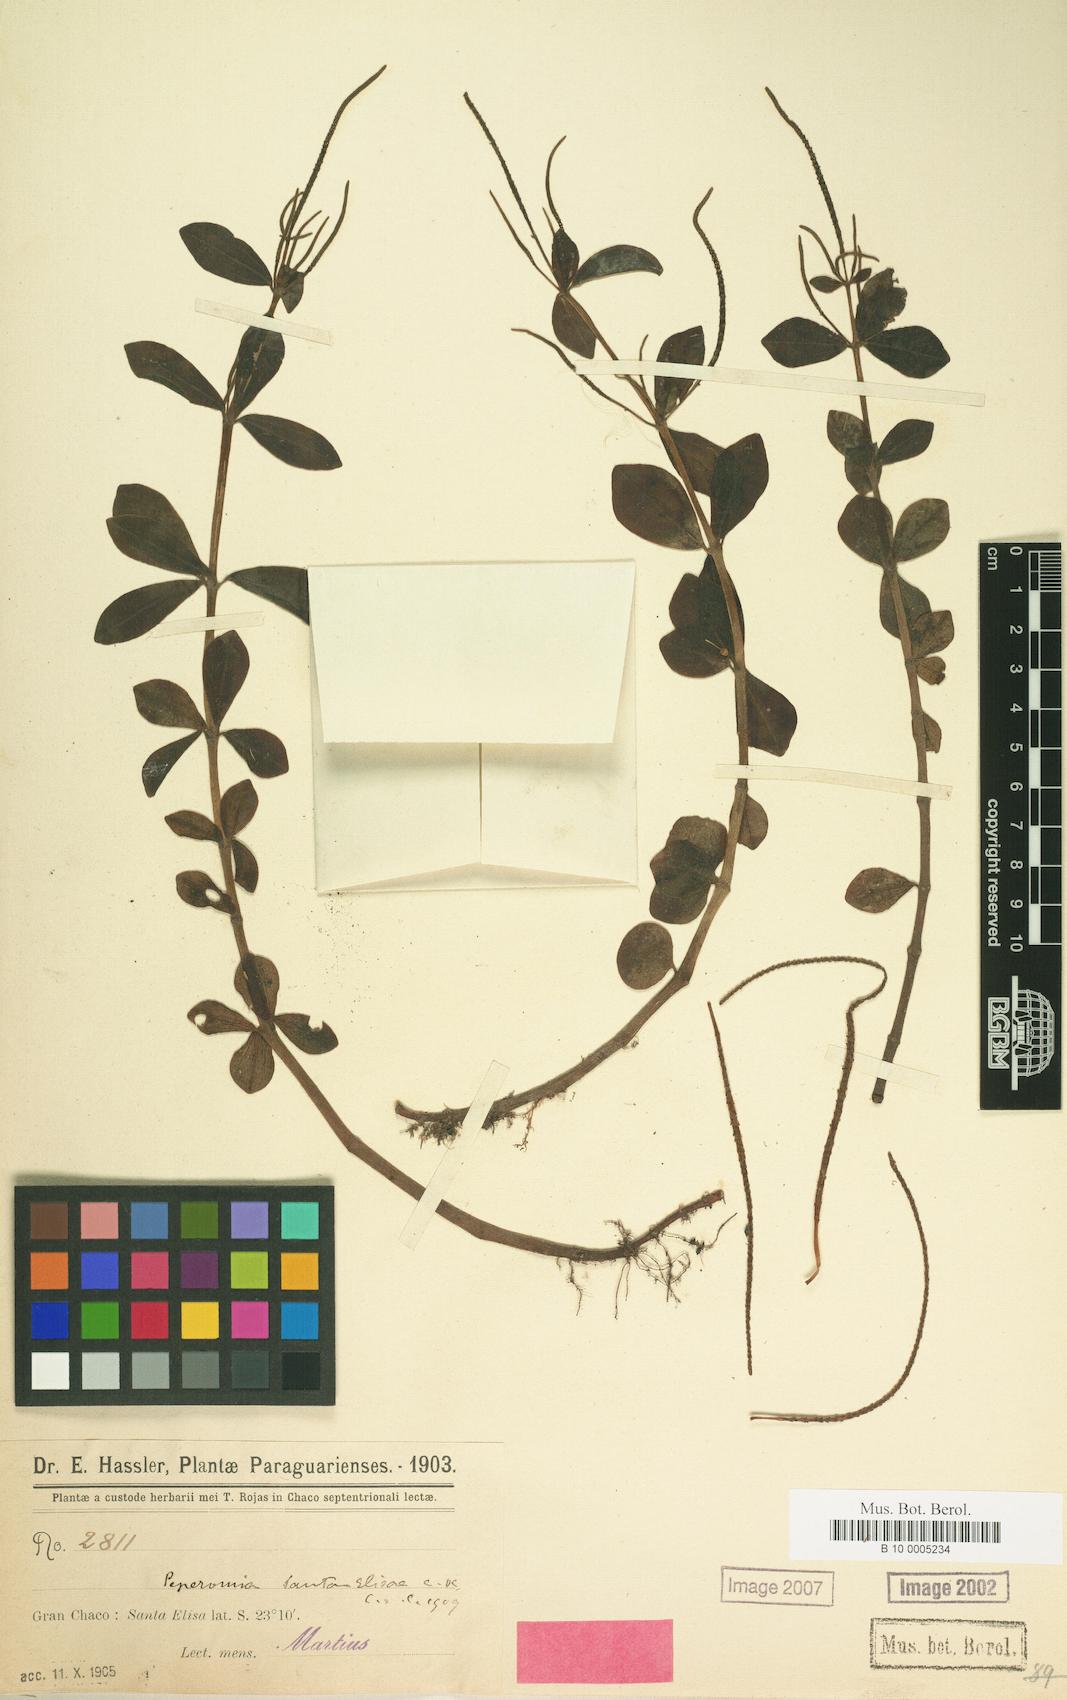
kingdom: Plantae
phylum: Tracheophyta
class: Magnoliopsida
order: Piperales
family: Piperaceae
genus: Peperomia
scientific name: Peperomia santa-elisae
